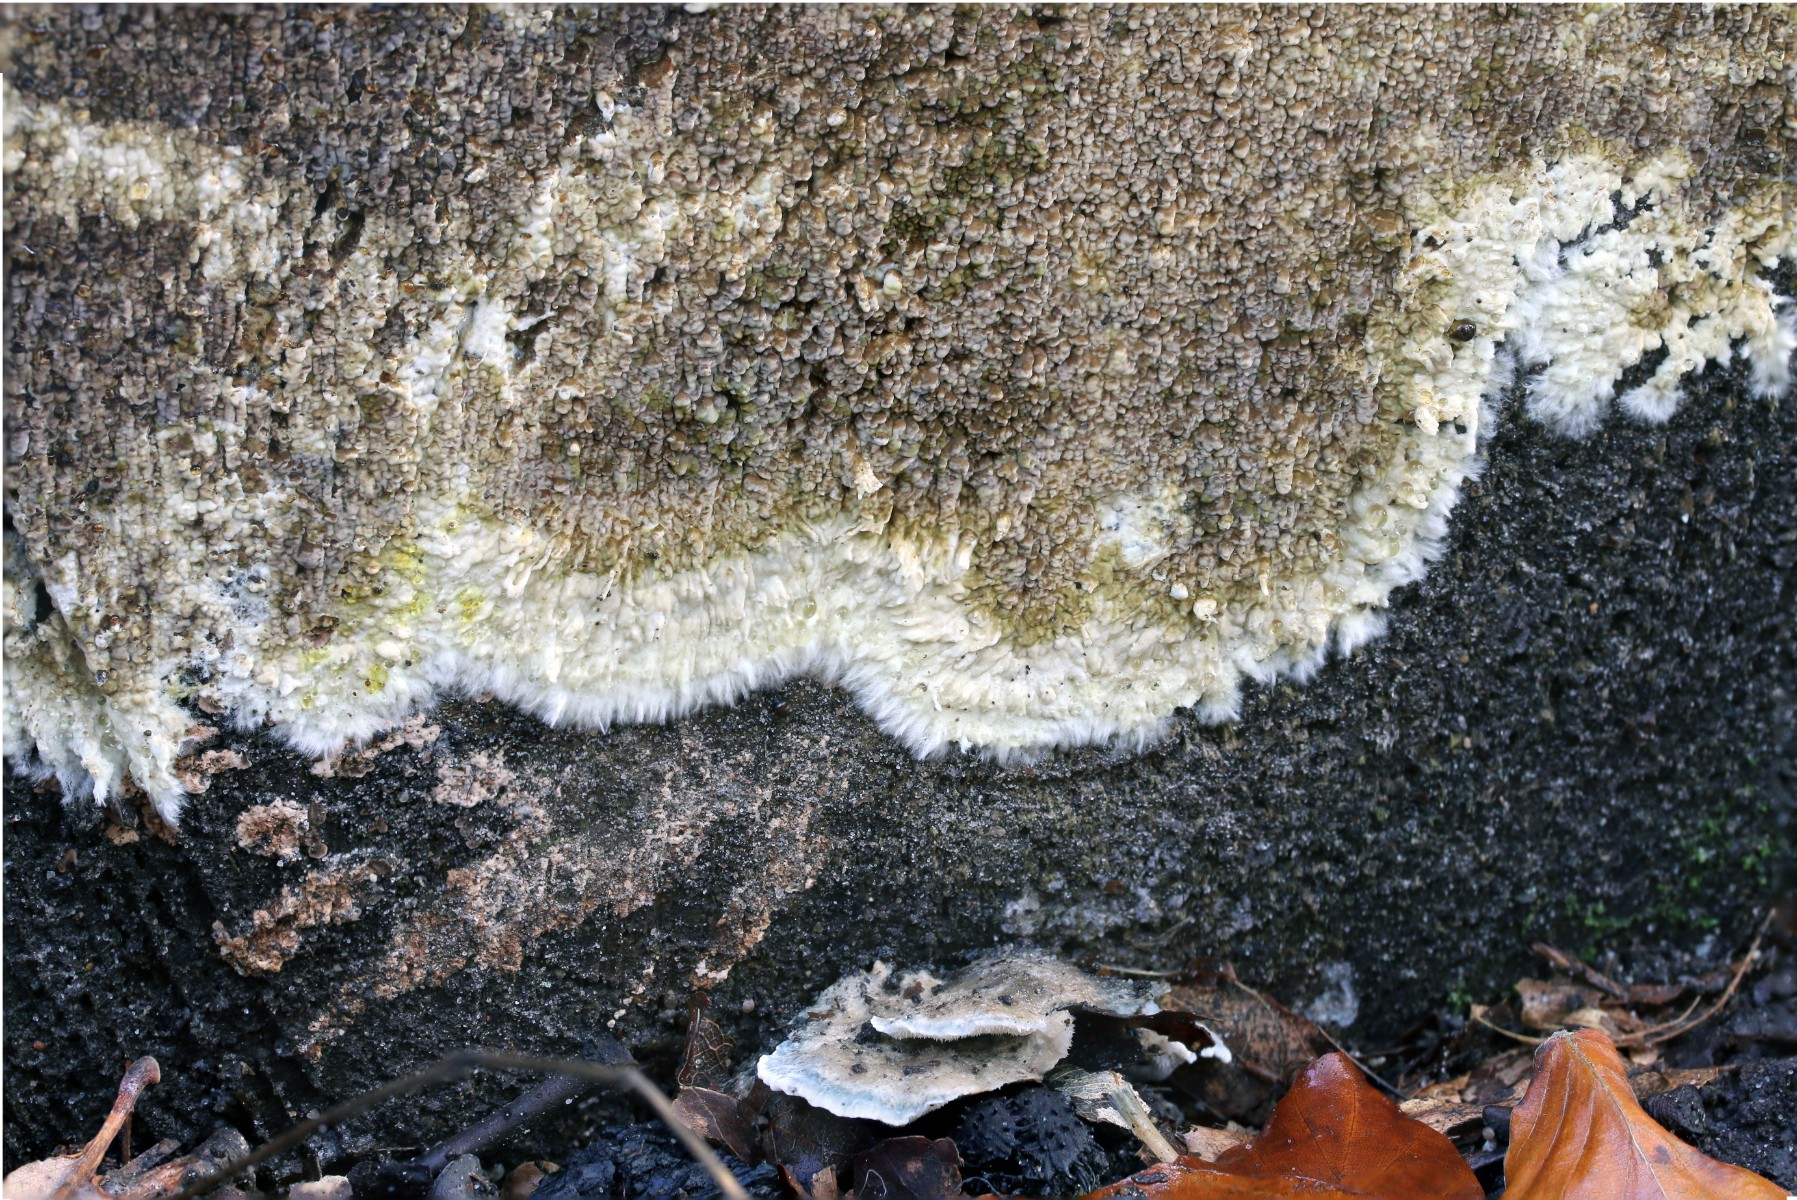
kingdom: Fungi
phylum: Basidiomycota
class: Agaricomycetes
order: Boletales
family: Coniophoraceae
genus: Coniophora
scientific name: Coniophora puteana
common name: gul tømmersvamp
